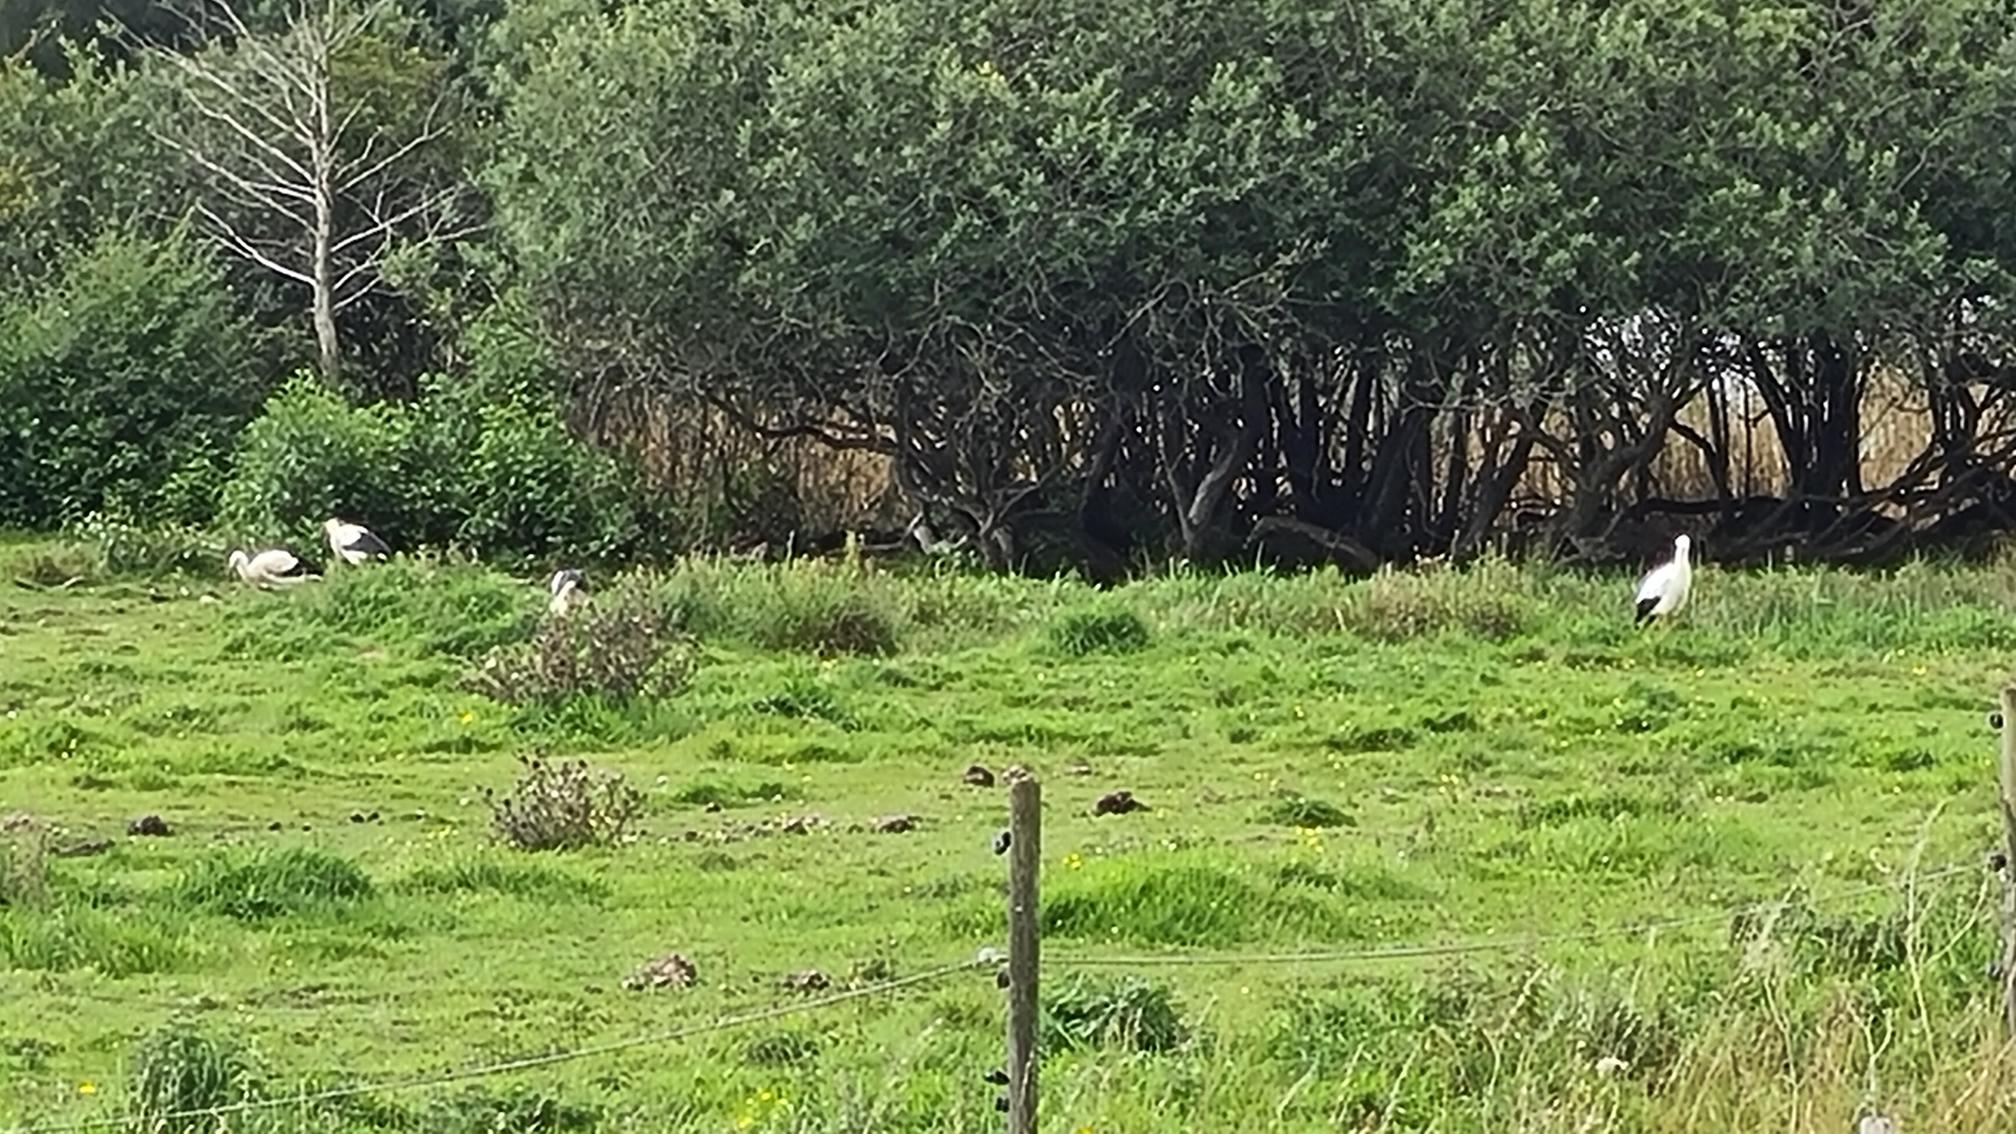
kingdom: Animalia
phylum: Chordata
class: Aves
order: Ciconiiformes
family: Ciconiidae
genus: Ciconia
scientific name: Ciconia ciconia
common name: Hvid stork
